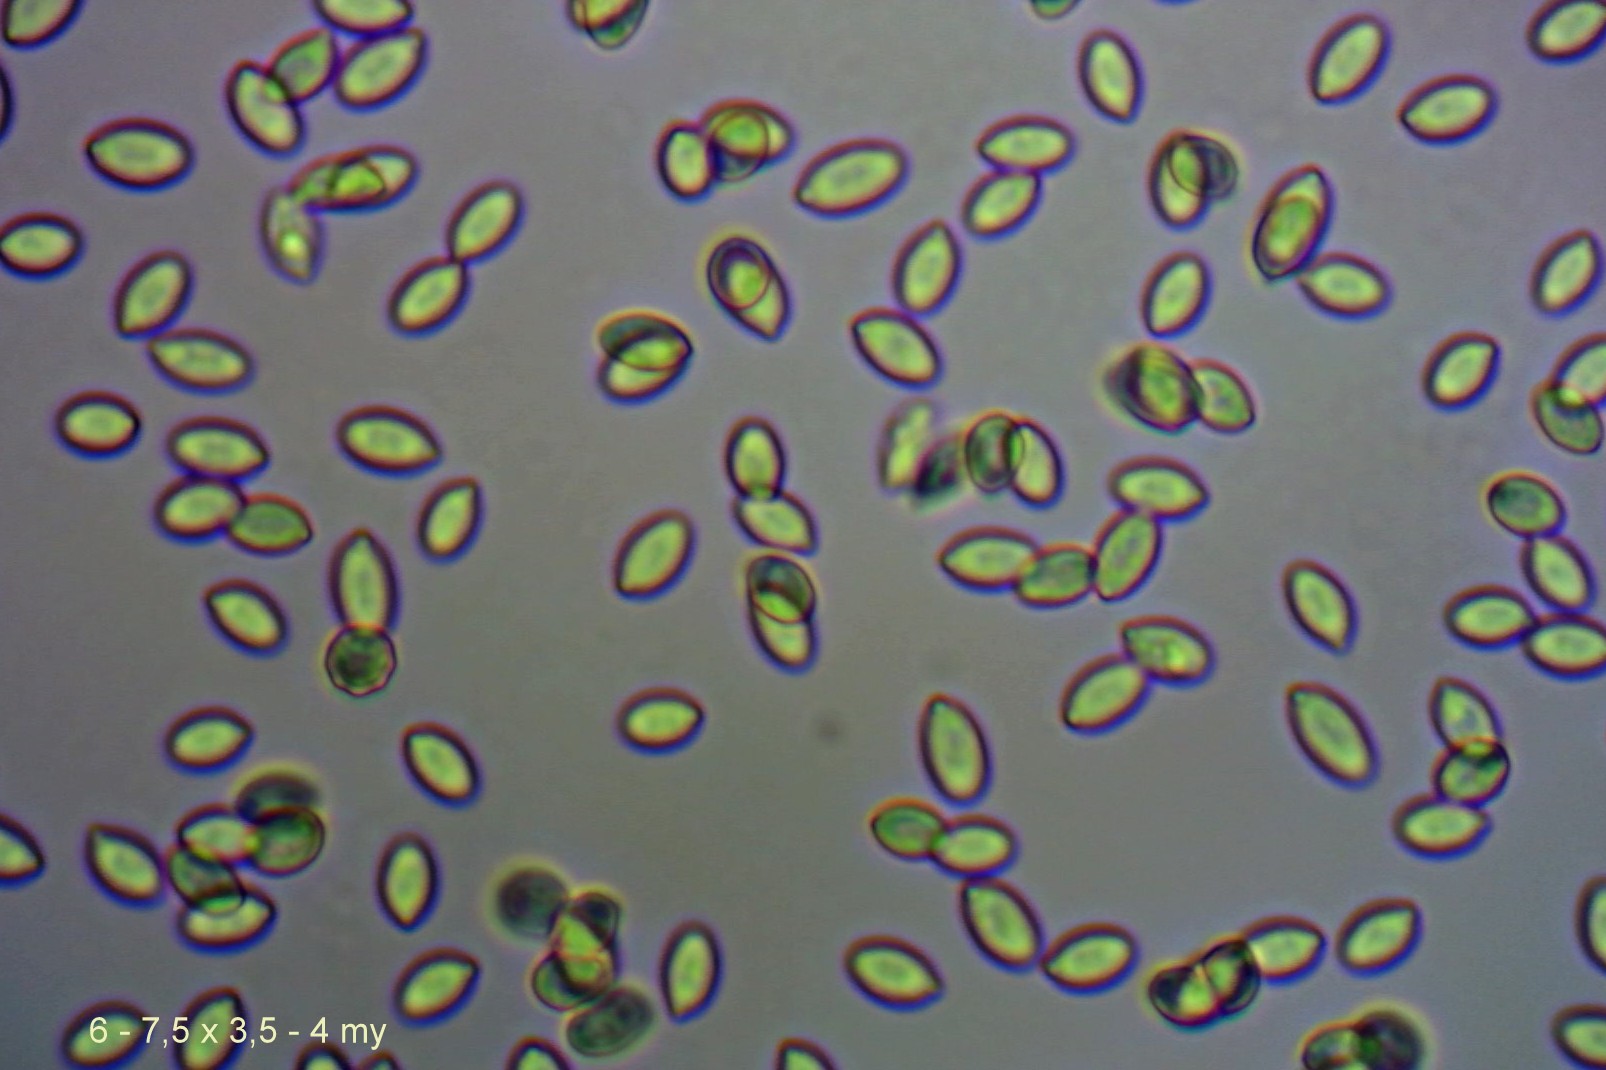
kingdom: Fungi
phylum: Basidiomycota
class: Agaricomycetes
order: Agaricales
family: Entolomataceae
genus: Clitopilus
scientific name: Clitopilus hobsonii
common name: Miller's oysterling
